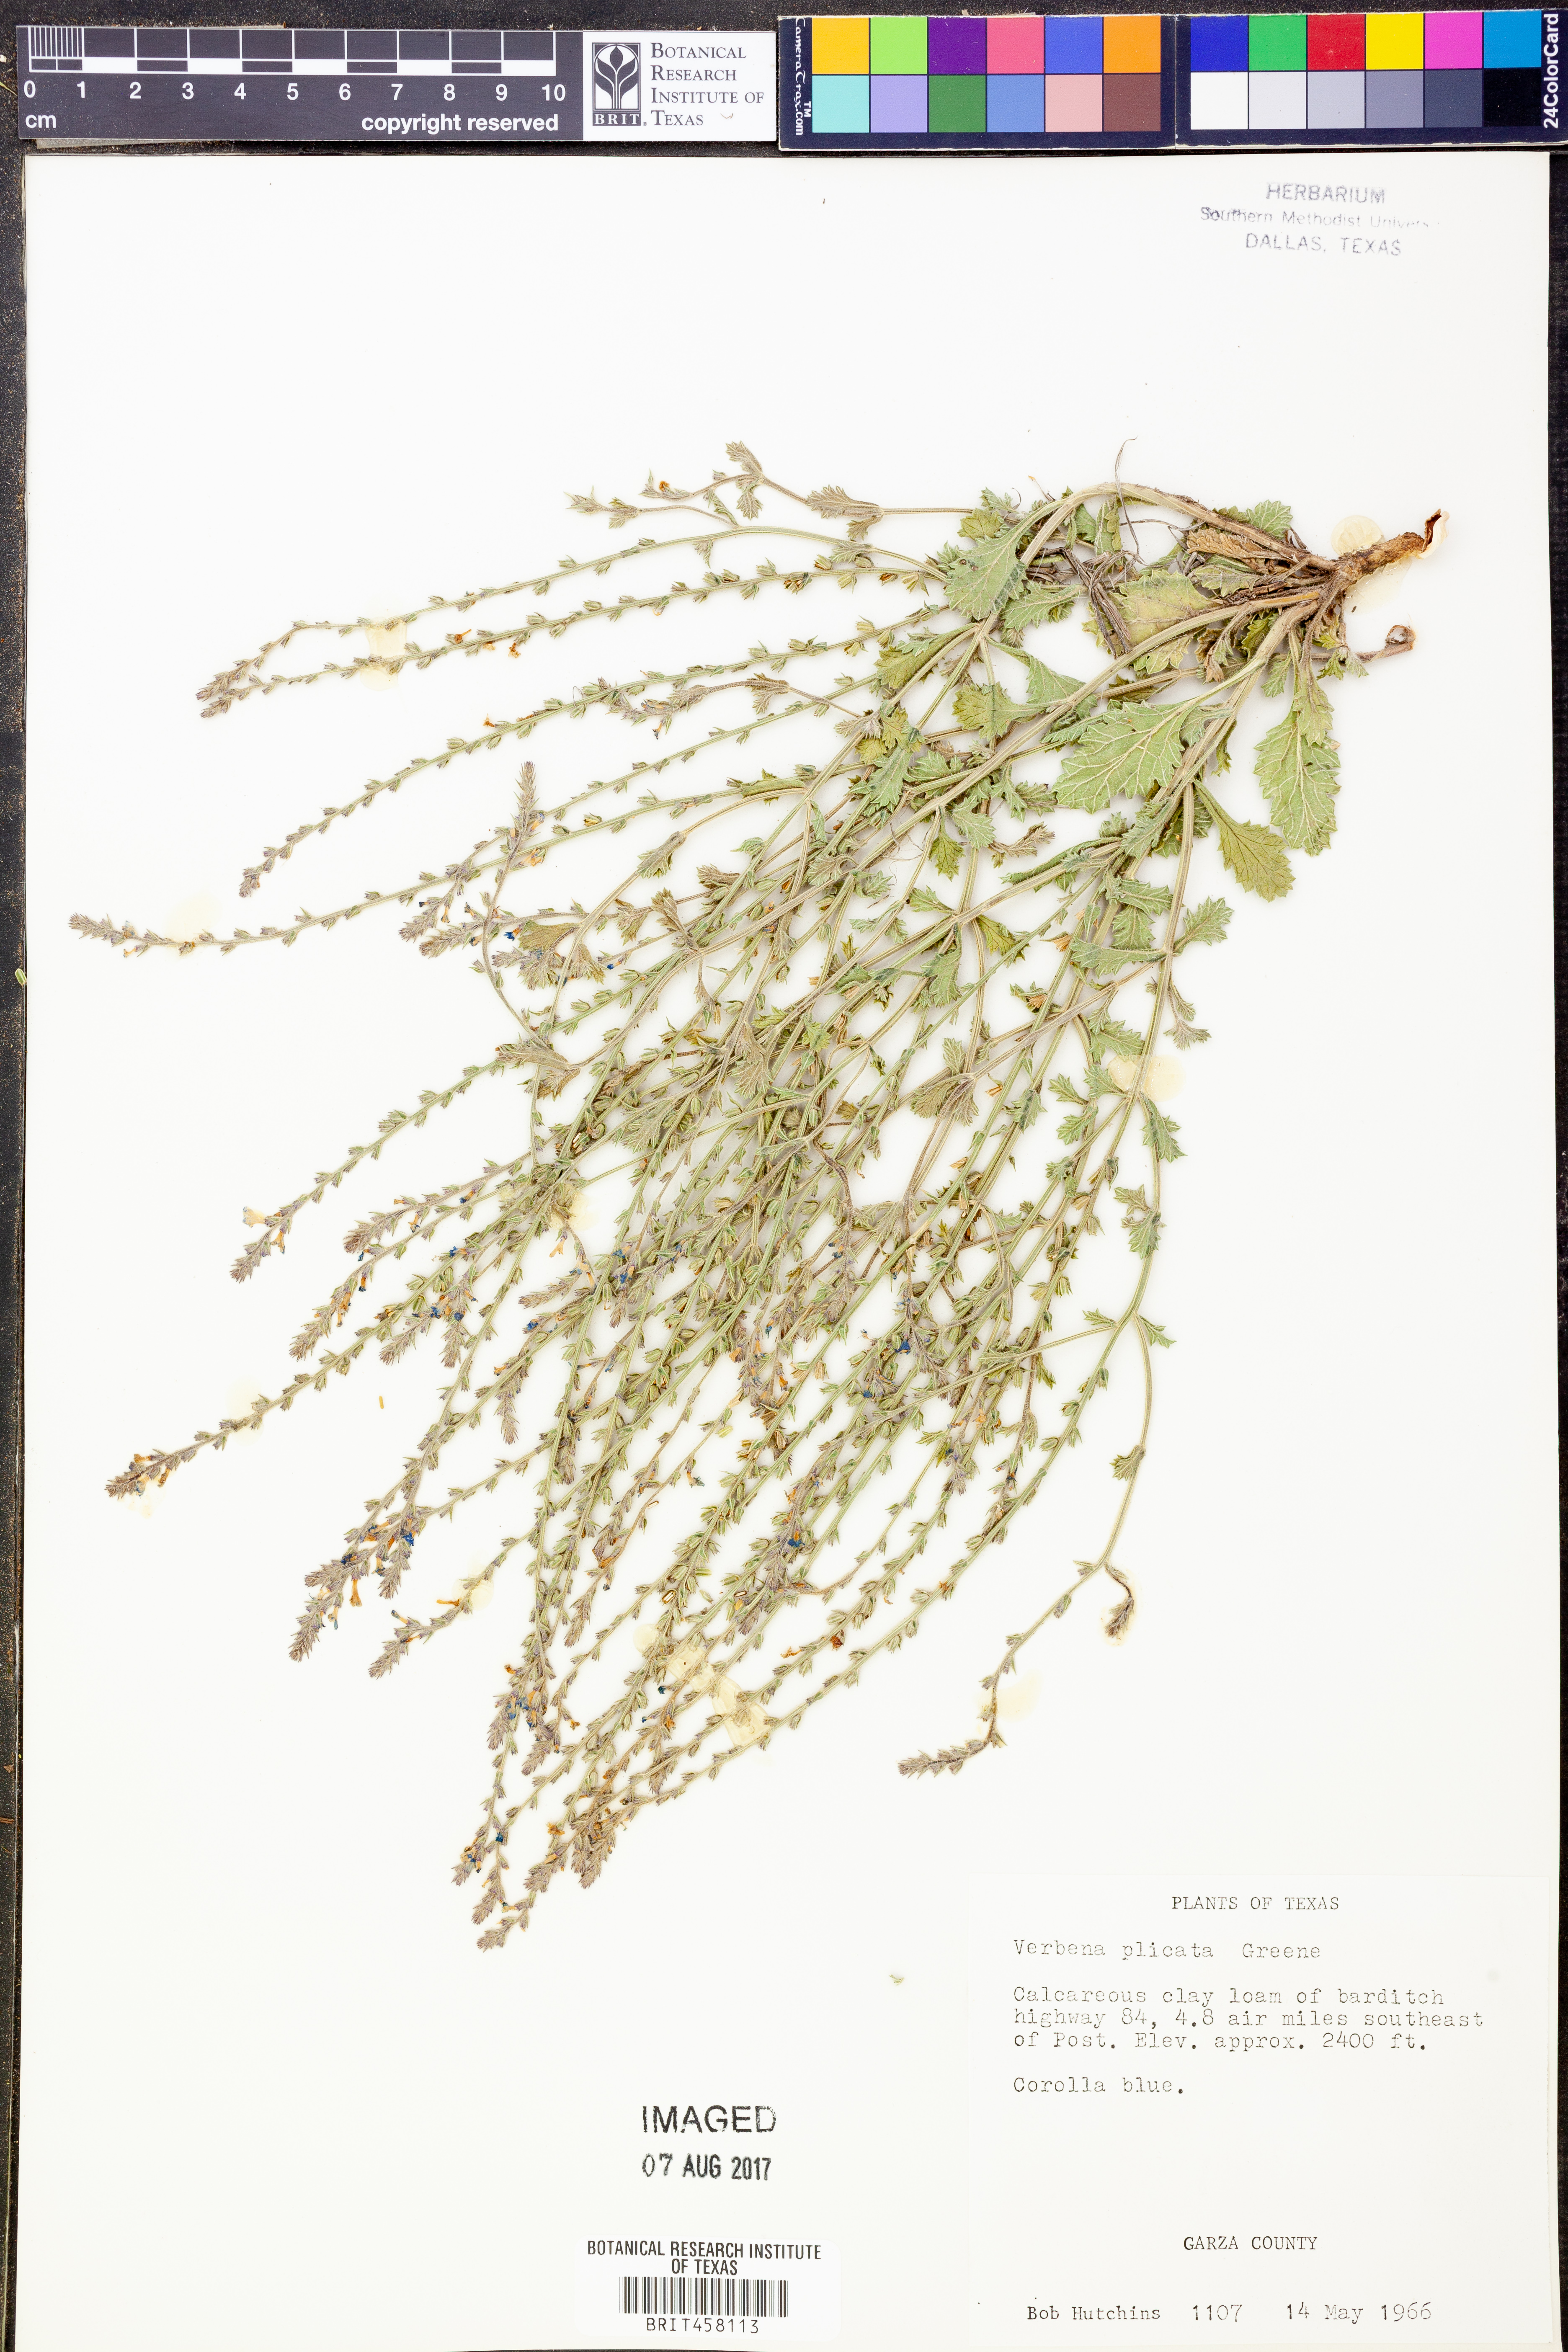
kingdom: Plantae
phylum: Tracheophyta
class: Magnoliopsida
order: Lamiales
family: Verbenaceae
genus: Verbena
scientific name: Verbena plicata
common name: Fan-leaf vervain
